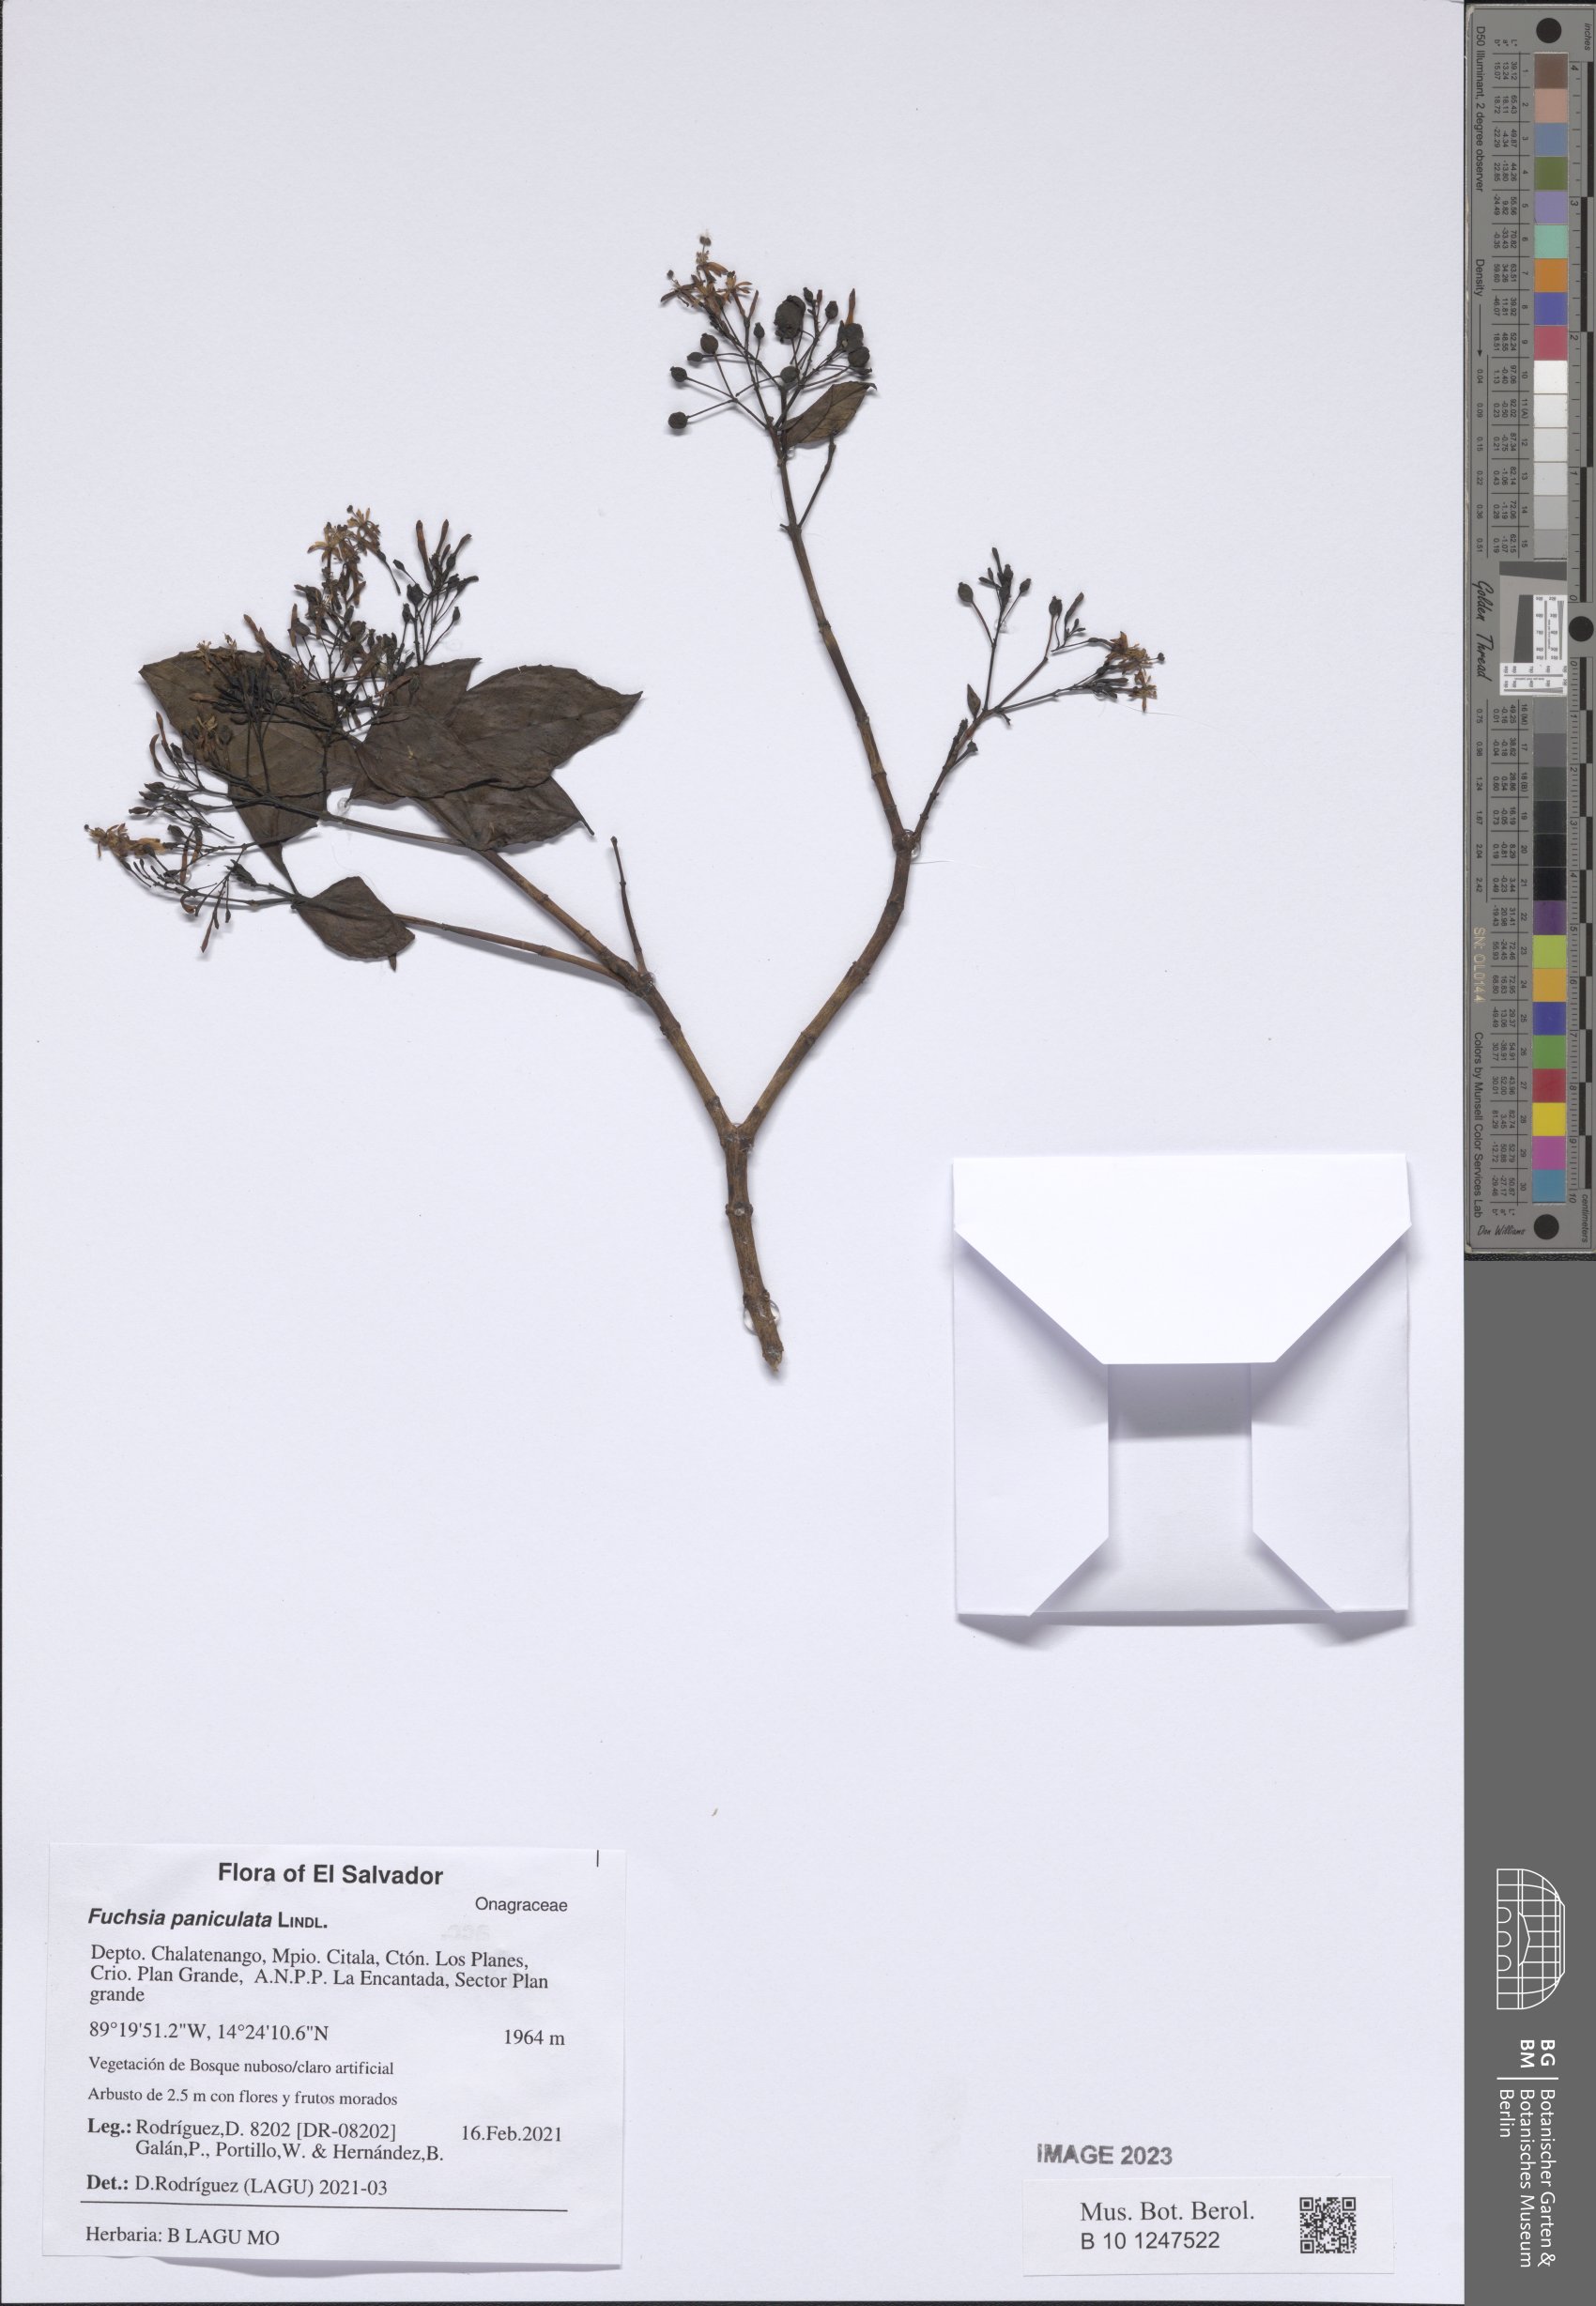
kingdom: Plantae
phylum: Tracheophyta
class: Magnoliopsida
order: Myrtales
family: Onagraceae
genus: Fuchsia
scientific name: Fuchsia paniculata
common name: Shrubby fuchsia
